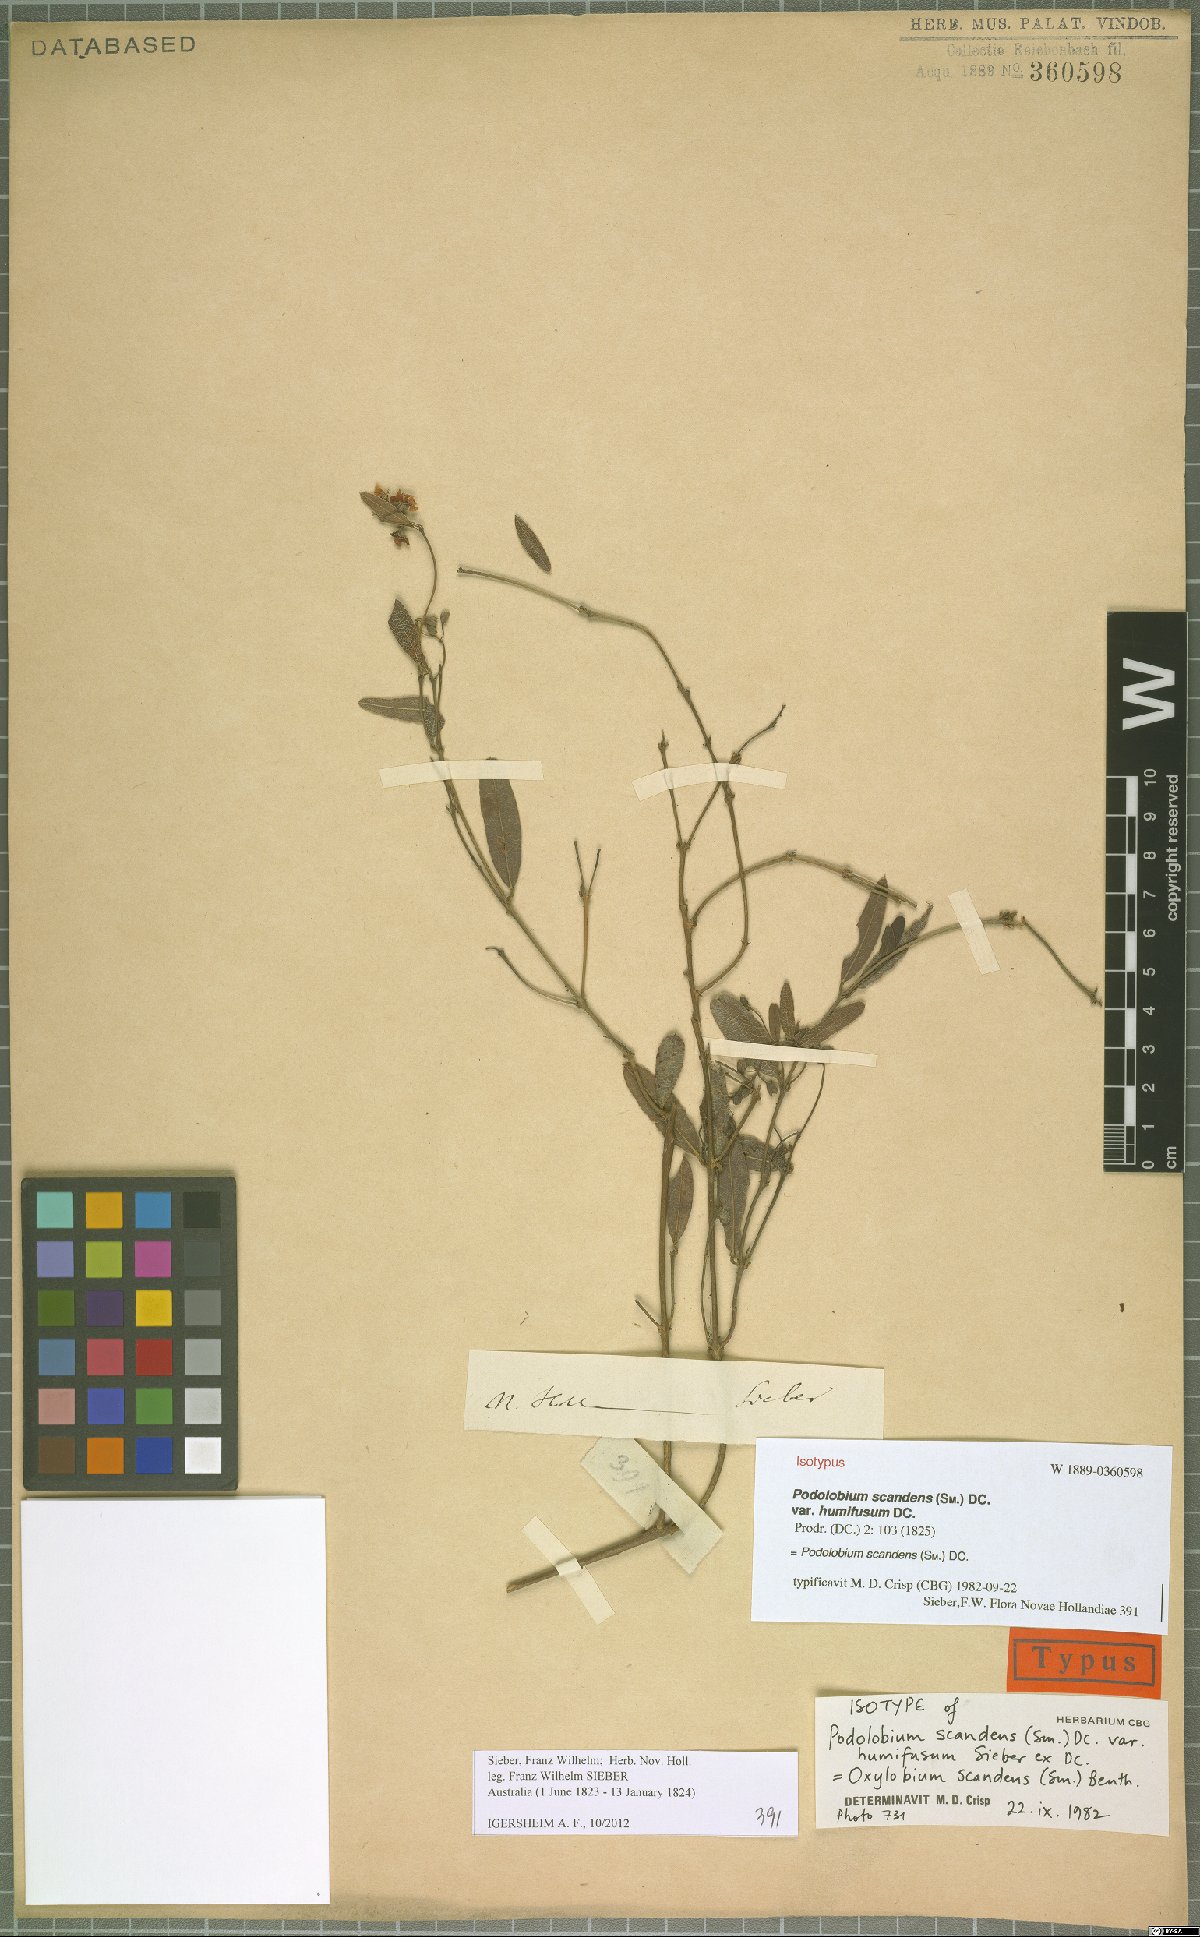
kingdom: Plantae
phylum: Tracheophyta
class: Magnoliopsida
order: Fabales
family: Fabaceae
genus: Podolobium
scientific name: Podolobium scandens
